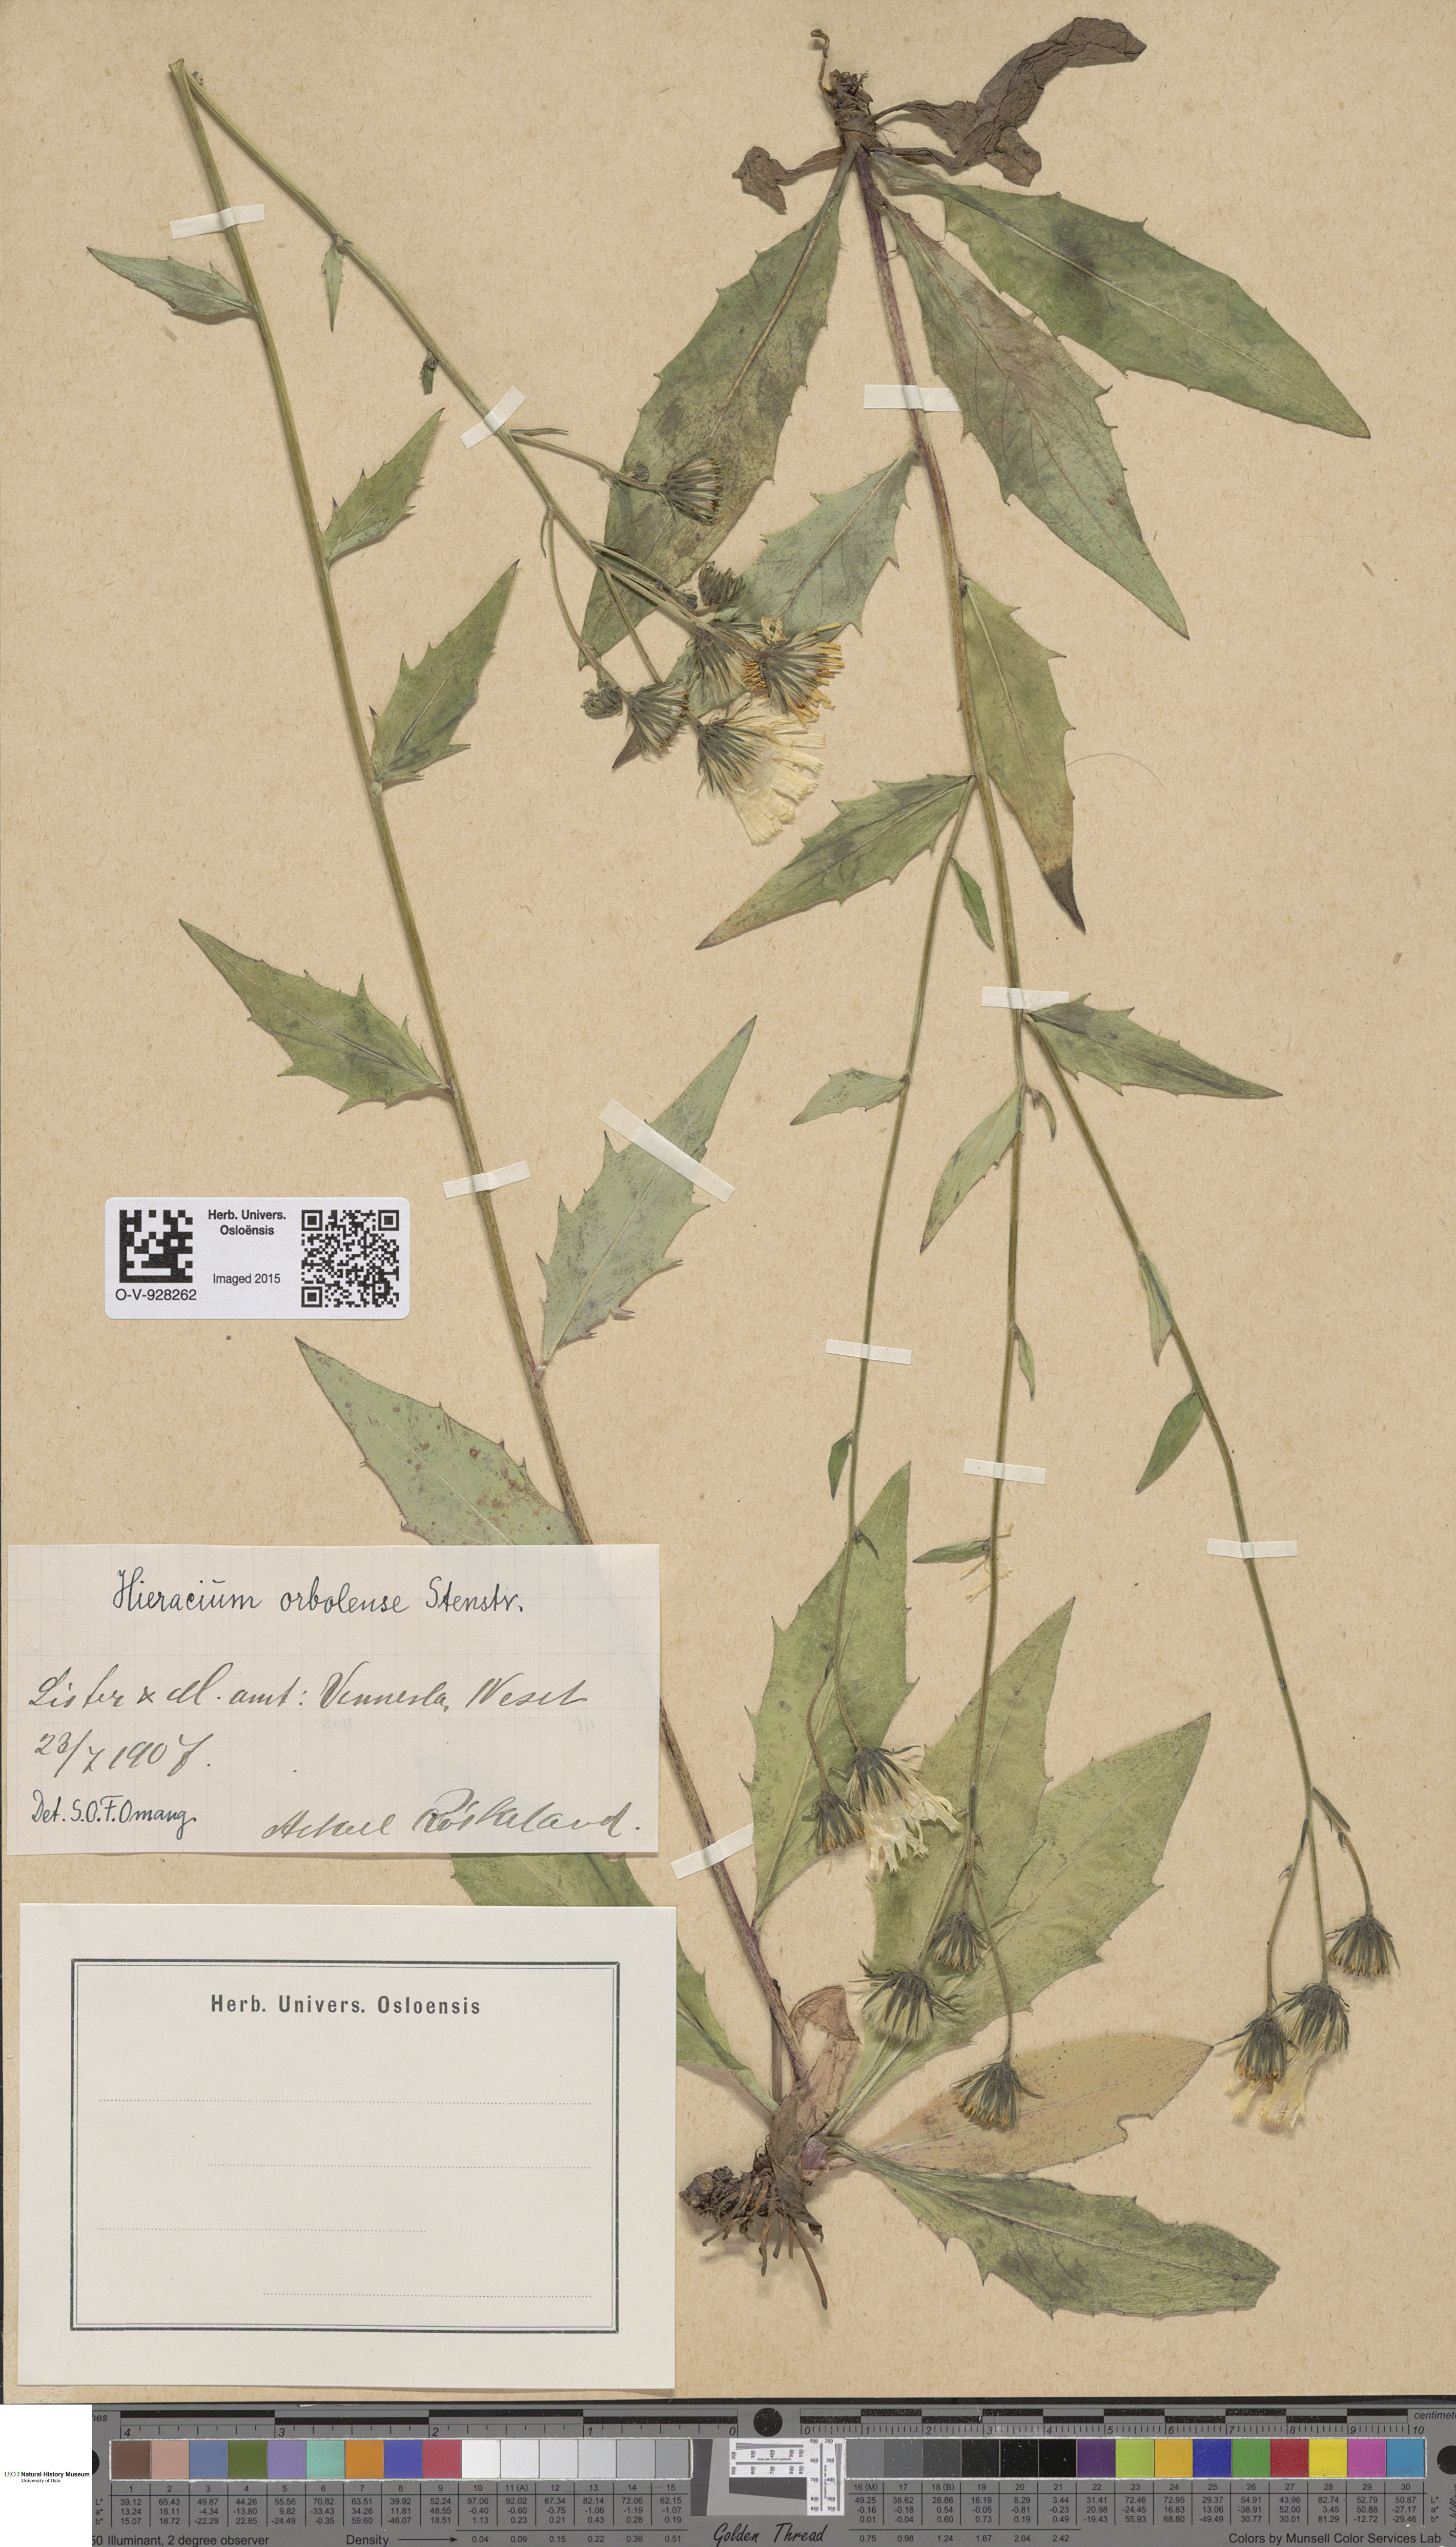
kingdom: Plantae
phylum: Tracheophyta
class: Magnoliopsida
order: Asterales
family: Asteraceae
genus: Hieracium
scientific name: Hieracium orbolense
